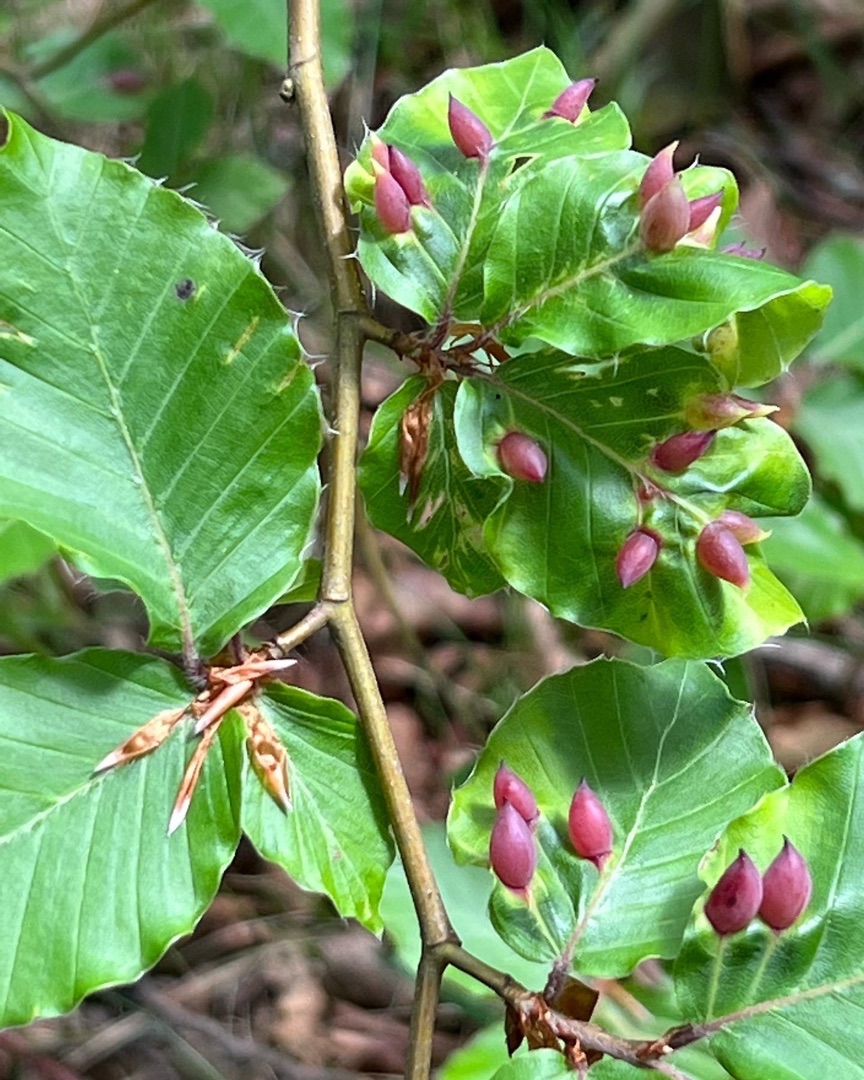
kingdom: Animalia
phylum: Arthropoda
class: Insecta
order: Diptera
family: Cecidomyiidae
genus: Mikiola
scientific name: Mikiola fagi
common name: Bøgegalmyg
